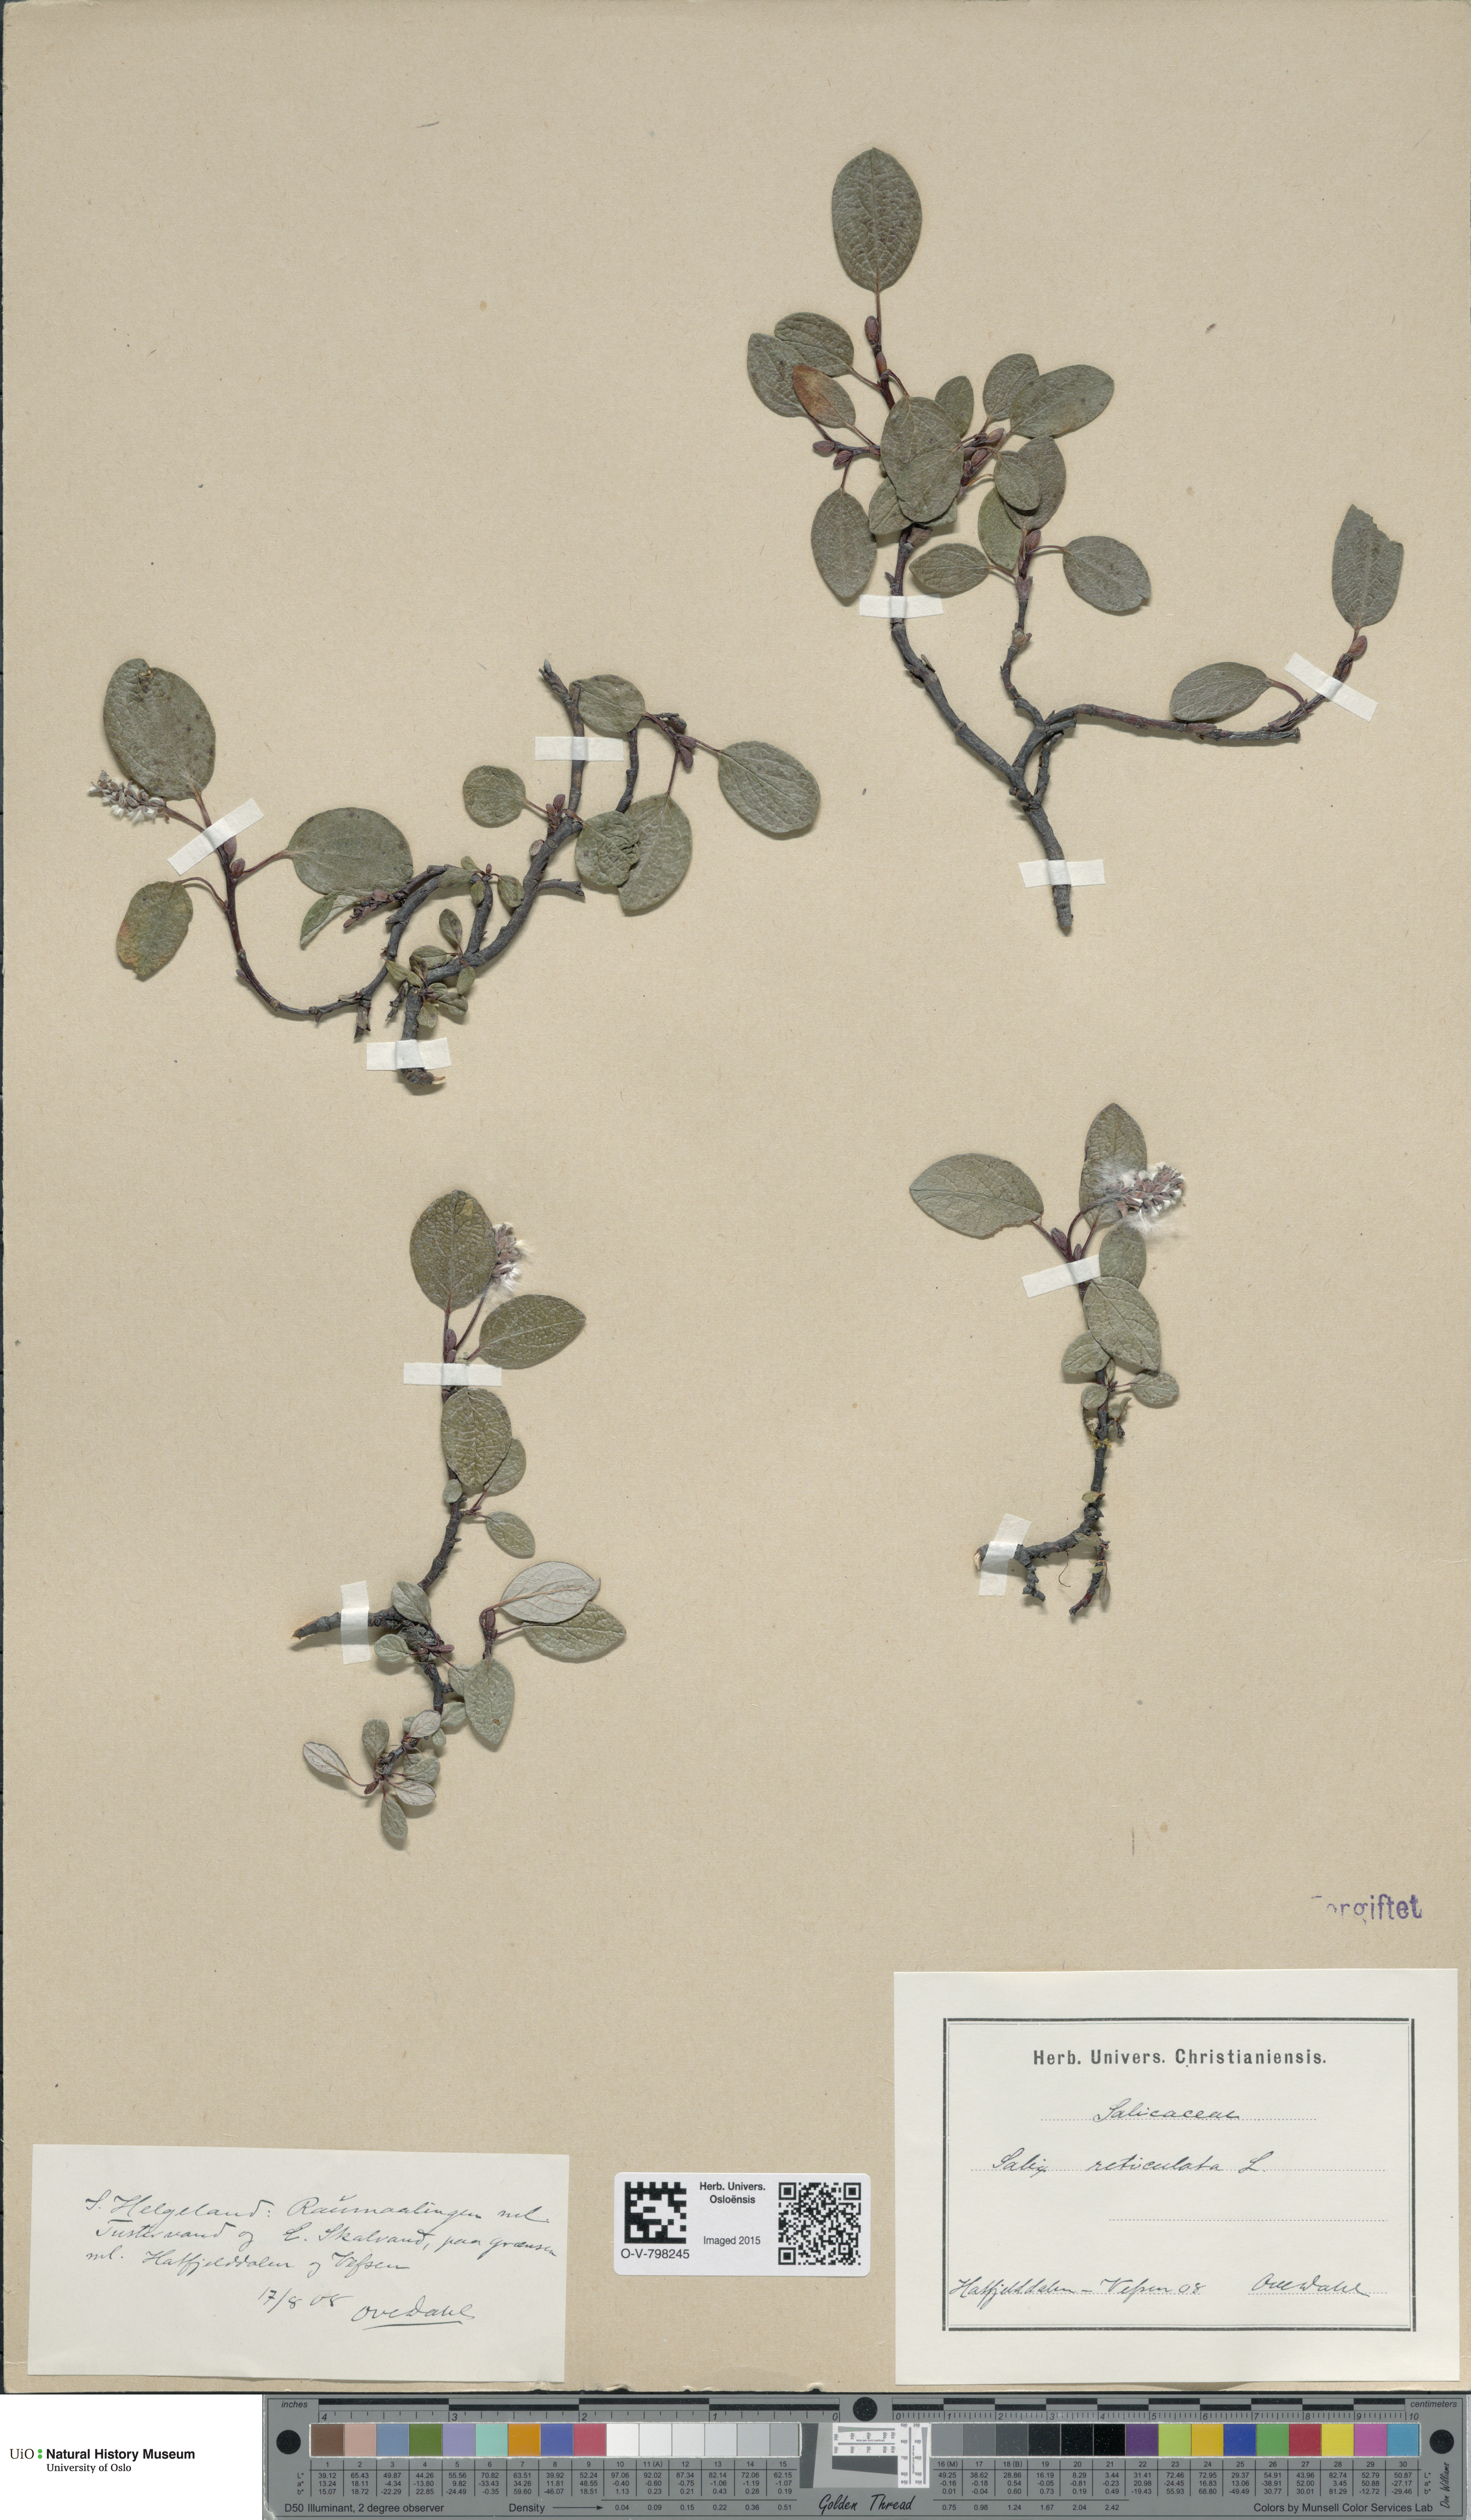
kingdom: Plantae
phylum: Tracheophyta
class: Magnoliopsida
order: Malpighiales
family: Salicaceae
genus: Salix
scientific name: Salix reticulata
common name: Net-leaved willow
